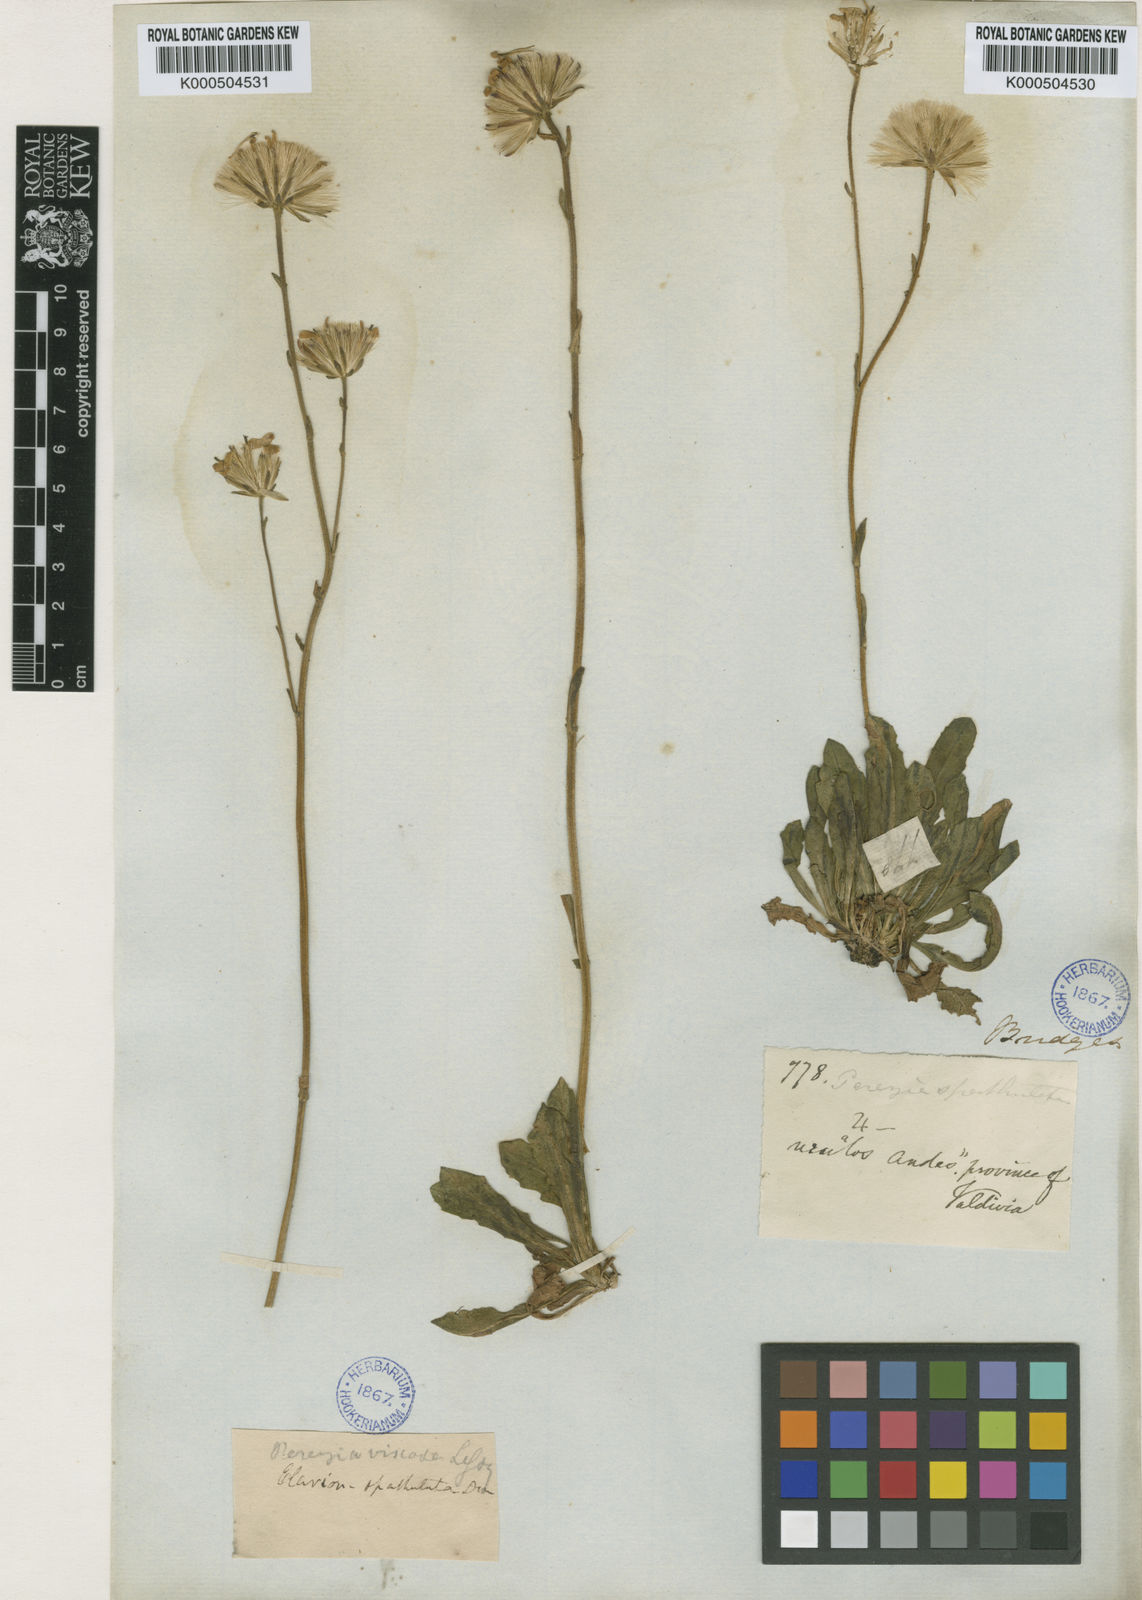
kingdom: Plantae
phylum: Tracheophyta
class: Magnoliopsida
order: Asterales
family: Asteraceae
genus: Perezia
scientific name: Perezia spathulata
